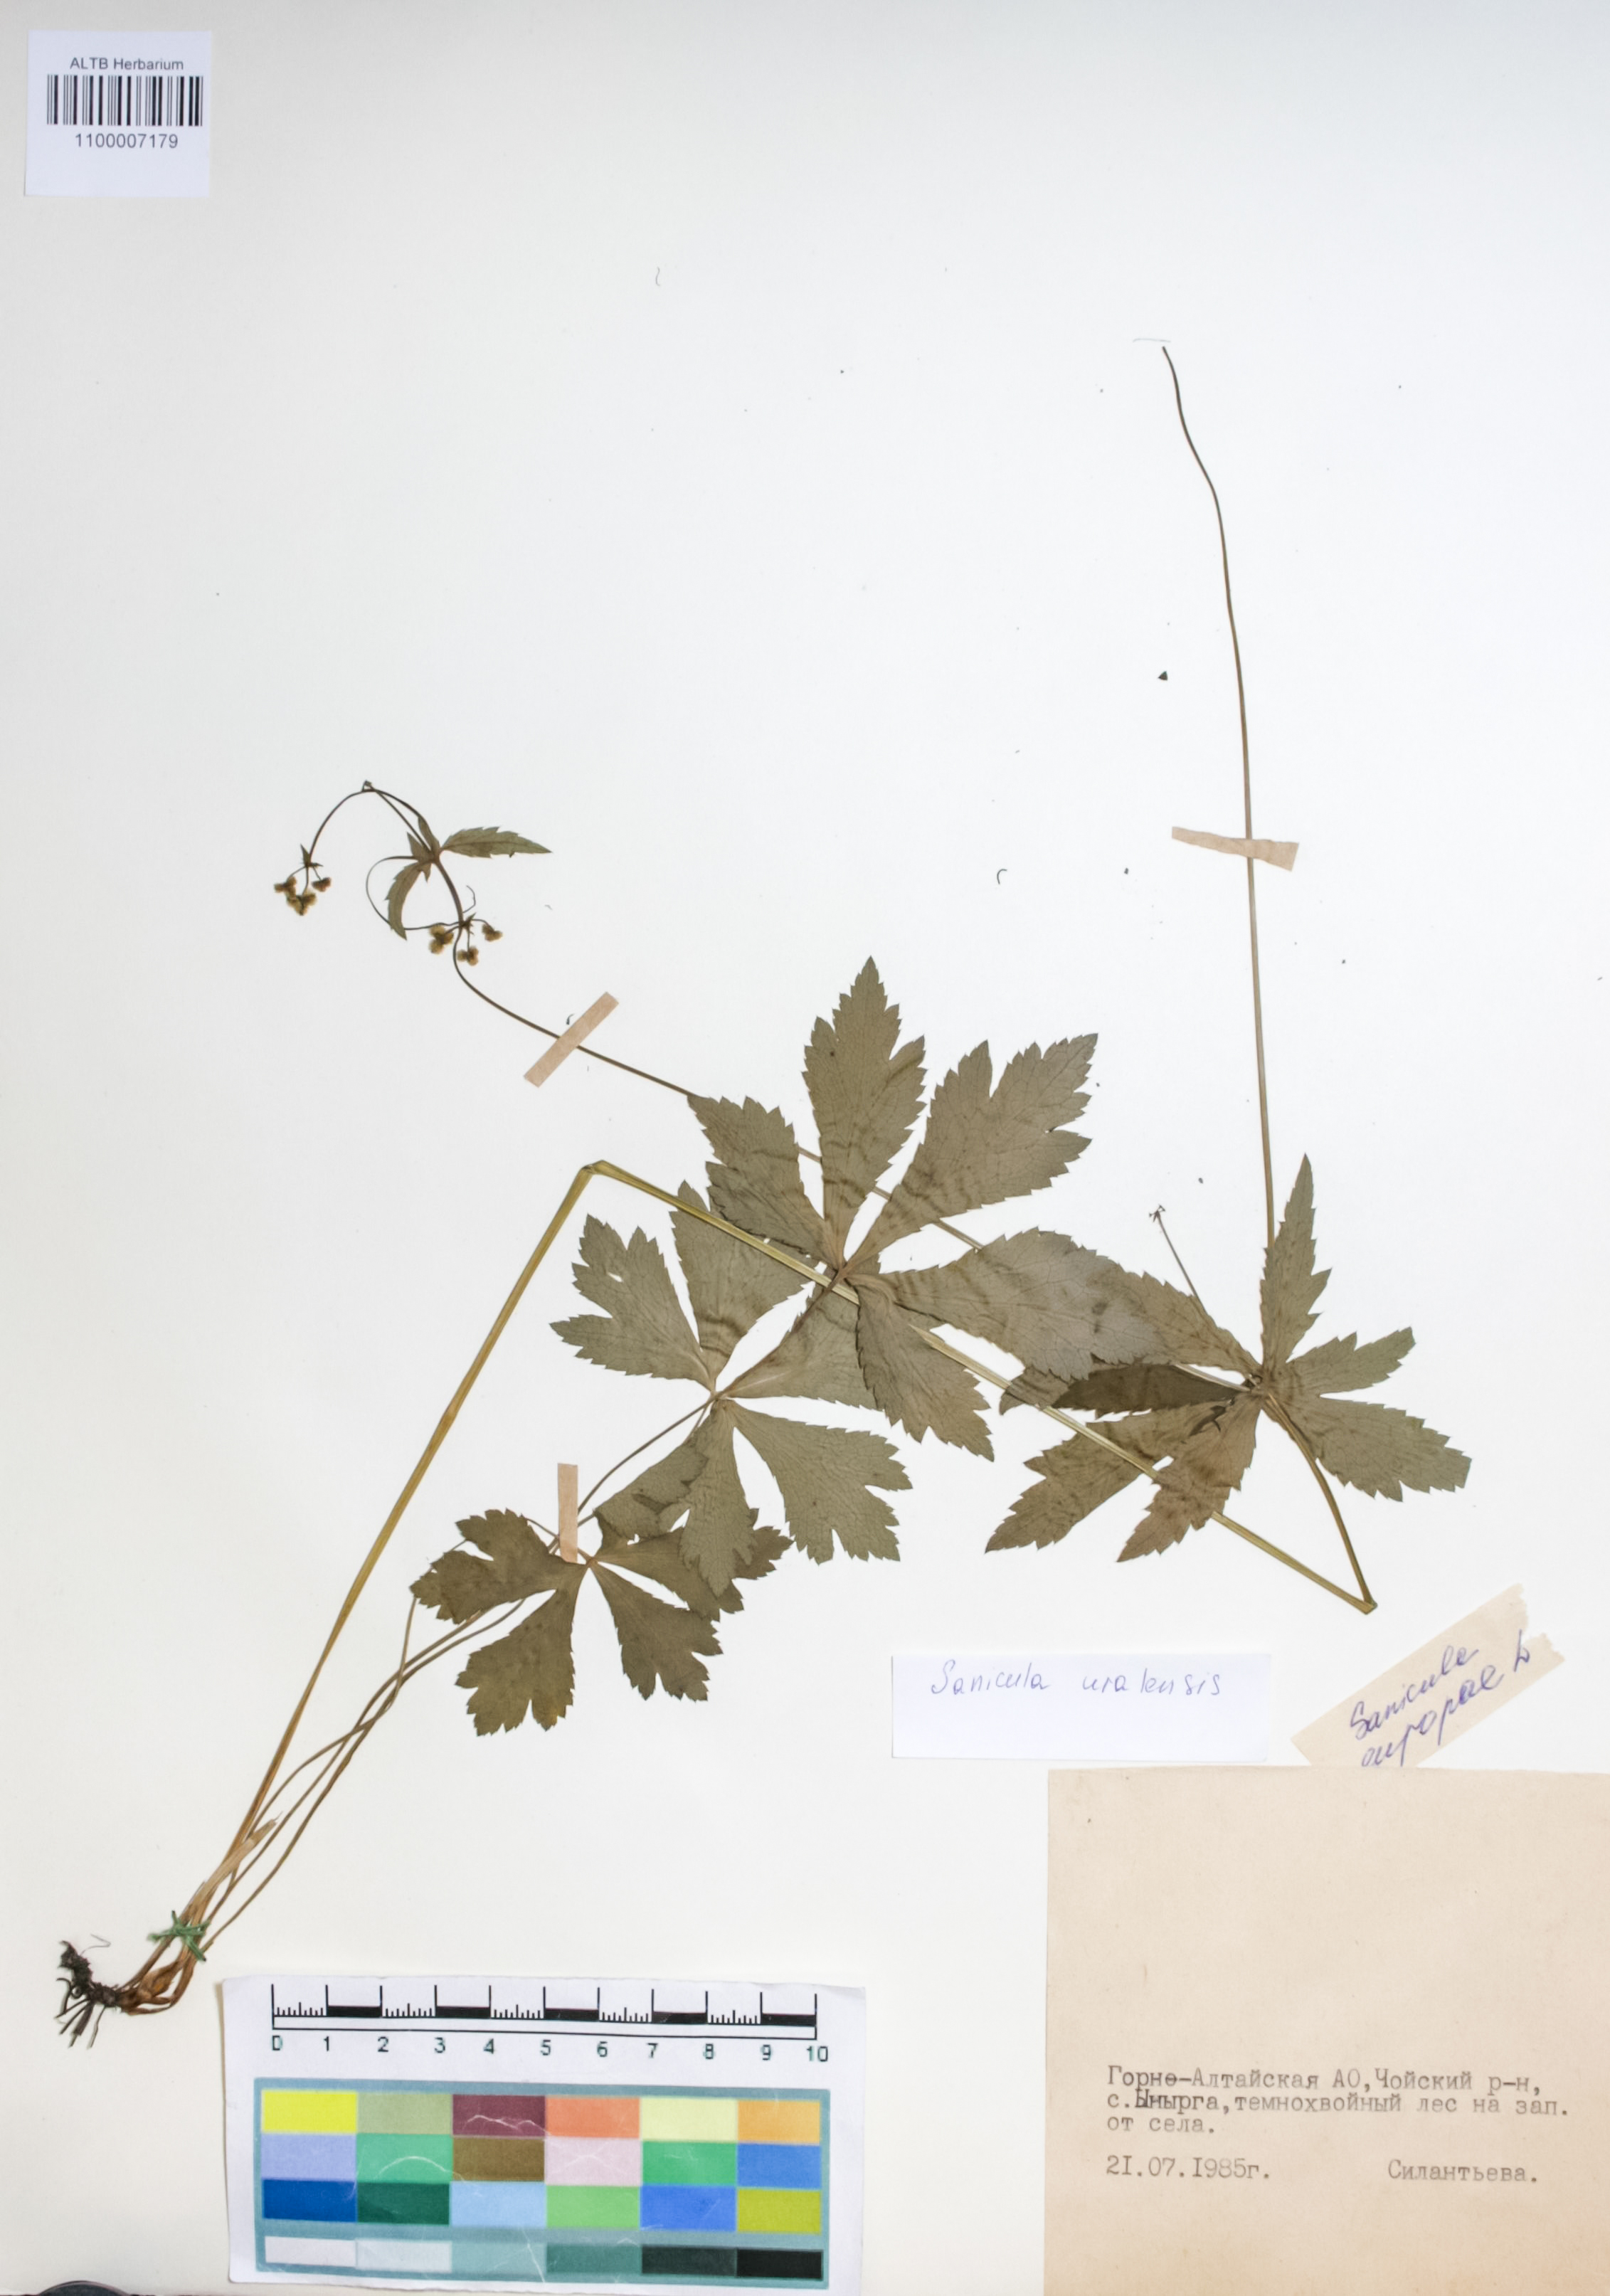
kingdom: Plantae
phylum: Tracheophyta
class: Magnoliopsida
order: Apiales
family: Apiaceae
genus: Sanicula
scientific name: Sanicula giraldii
